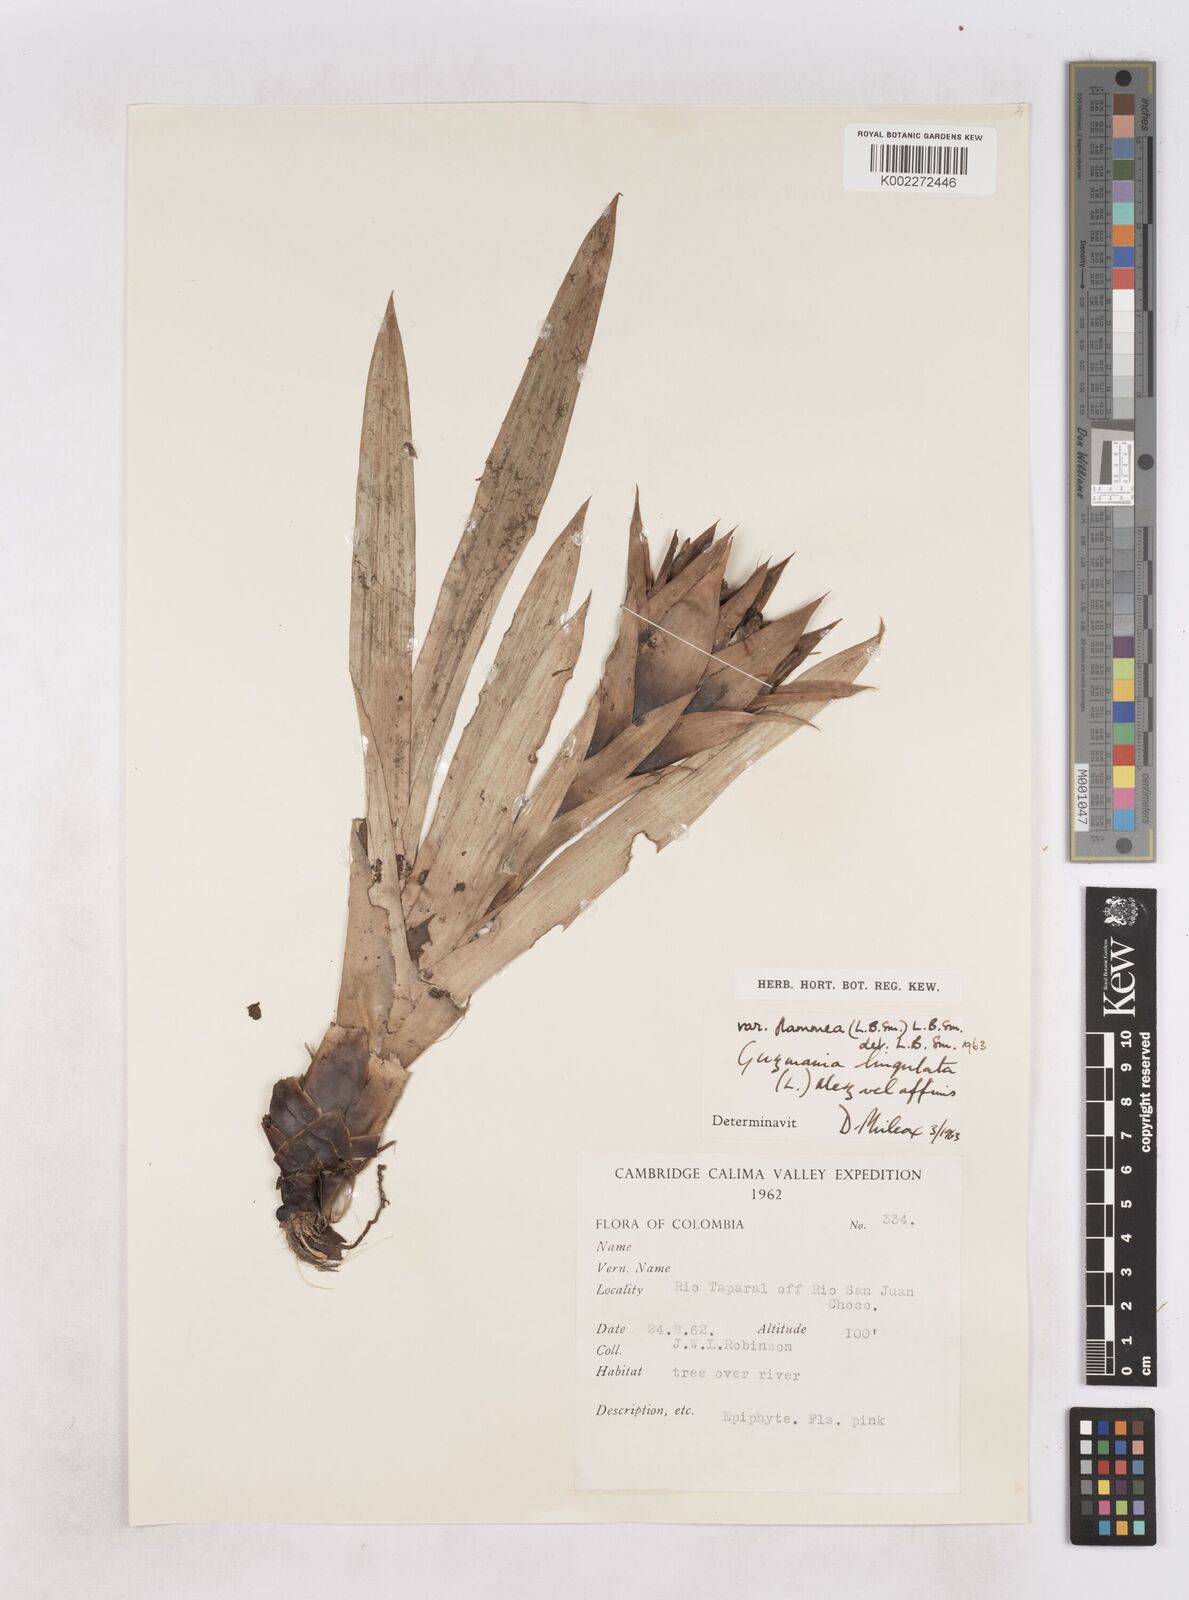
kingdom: Plantae
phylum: Tracheophyta
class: Liliopsida
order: Poales
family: Bromeliaceae
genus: Guzmania
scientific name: Guzmania lingulata
